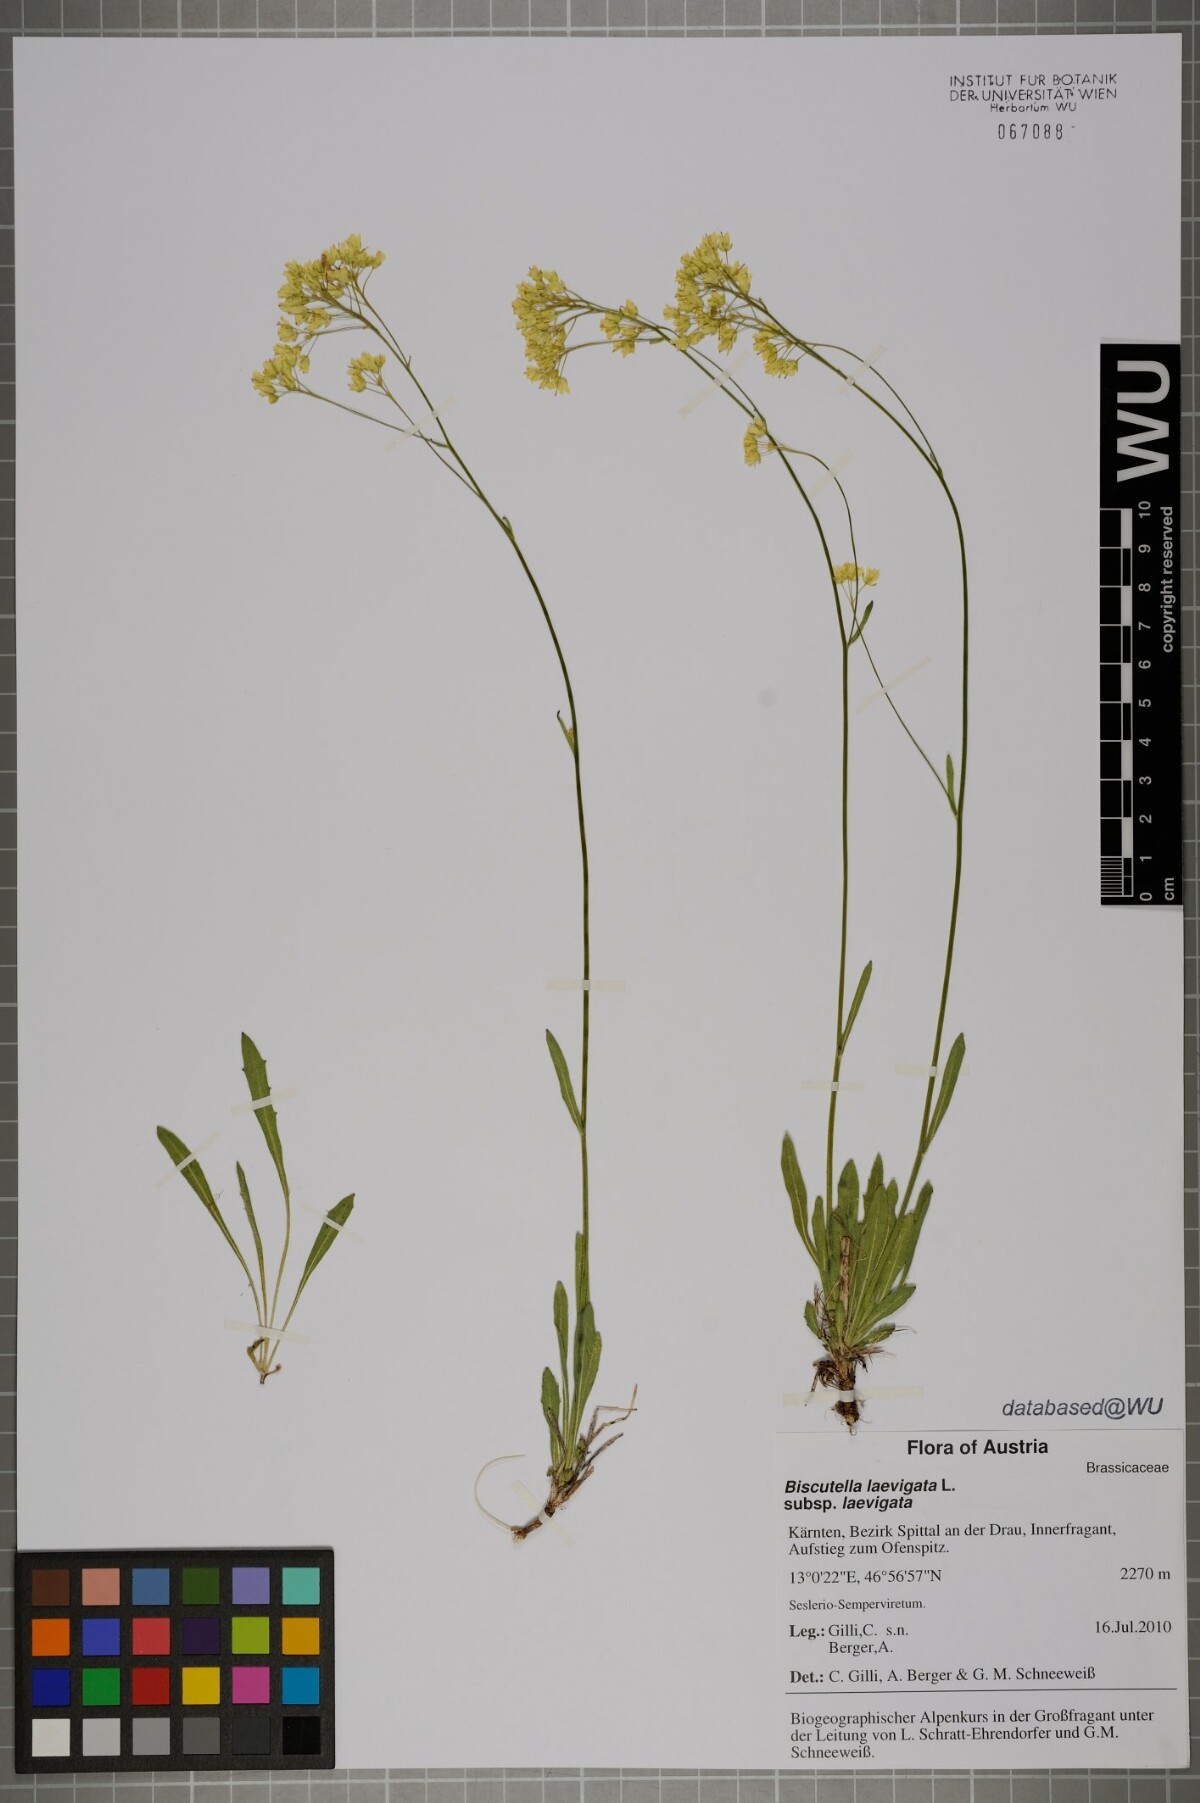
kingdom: Plantae
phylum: Tracheophyta
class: Magnoliopsida
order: Brassicales
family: Brassicaceae
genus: Biscutella
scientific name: Biscutella laevigata
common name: Buckler mustard
